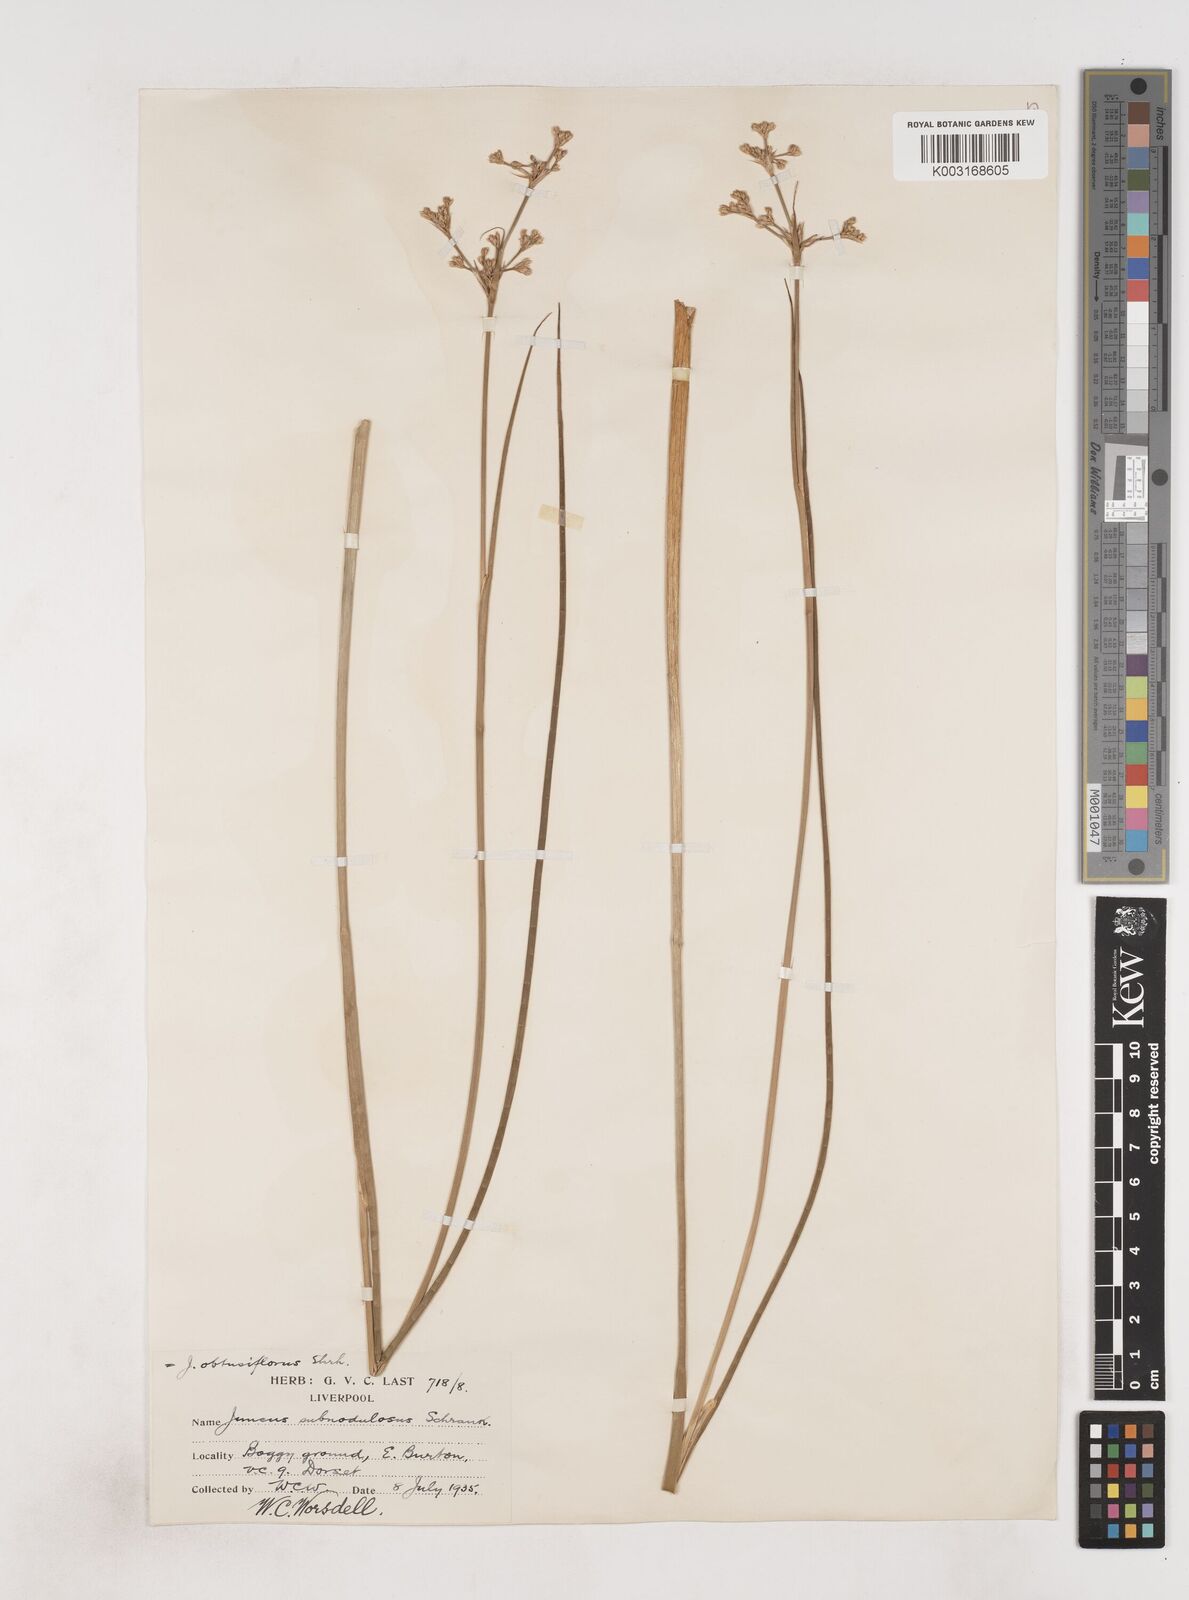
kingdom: Plantae
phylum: Tracheophyta
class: Liliopsida
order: Poales
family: Juncaceae
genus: Juncus
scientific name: Juncus subnodulosus
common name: Blunt-flowered rush
